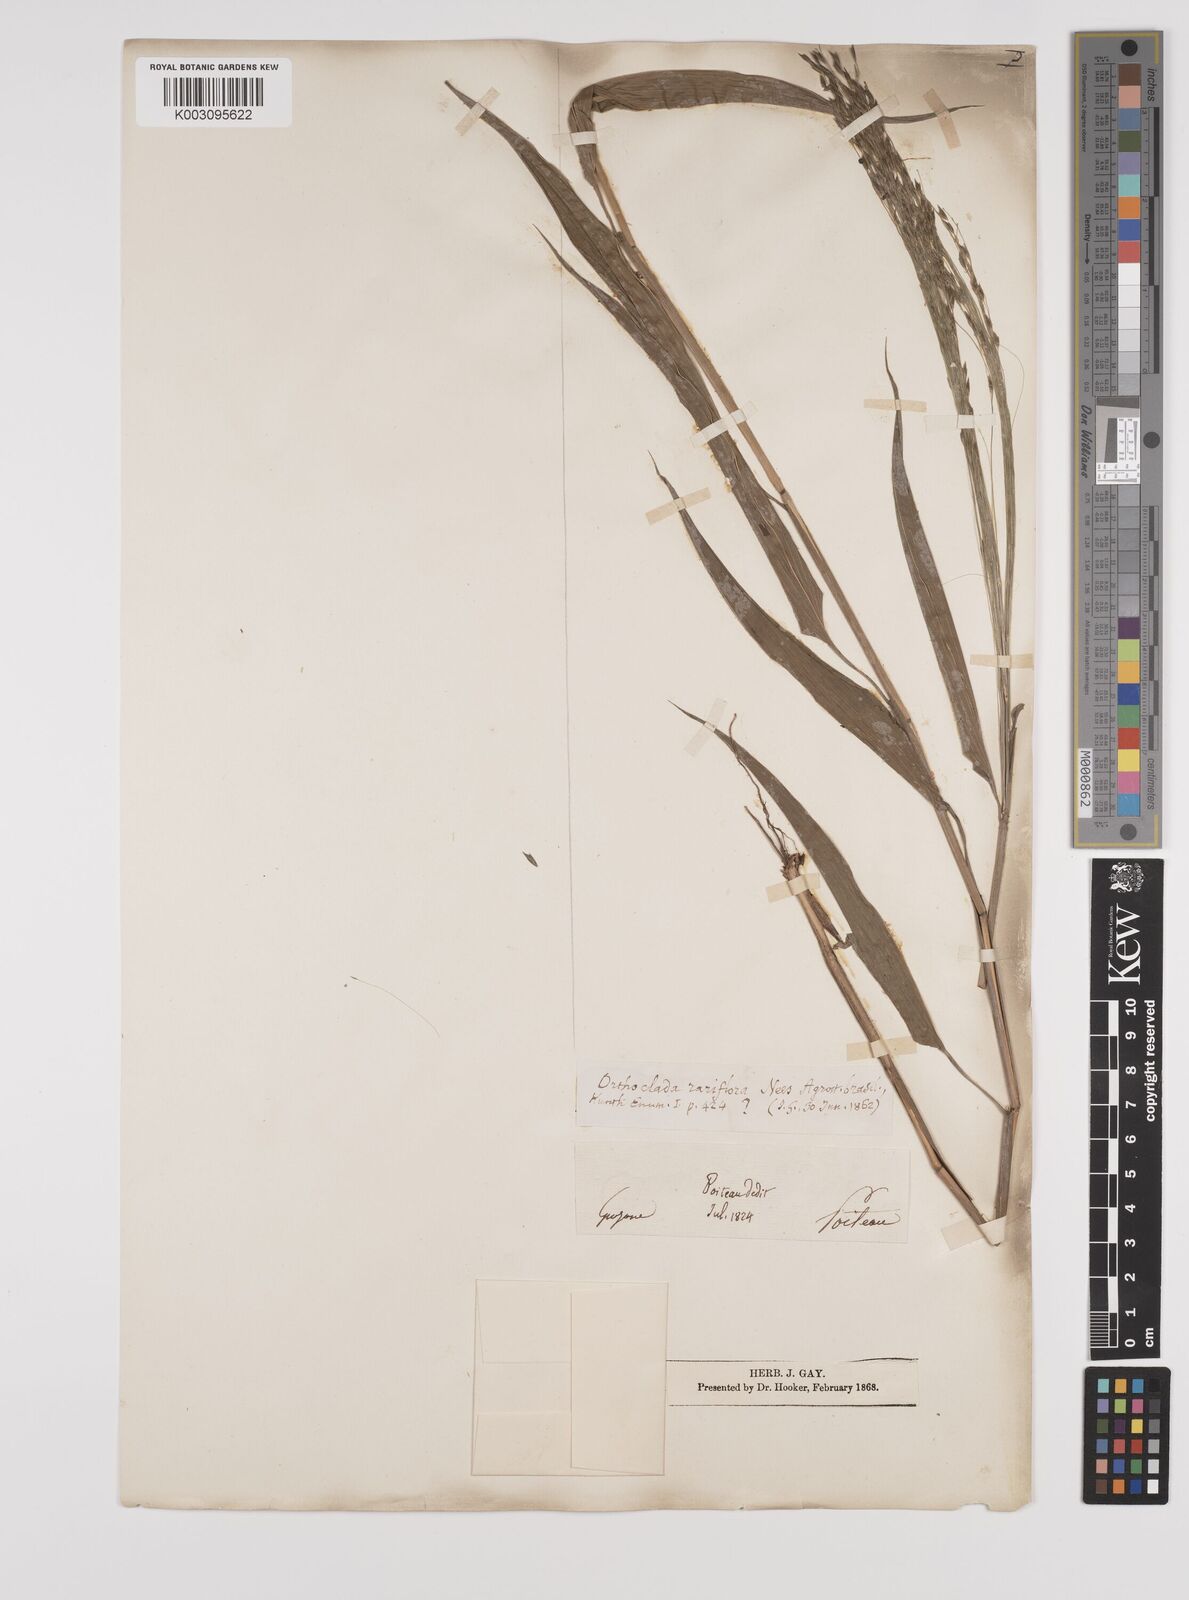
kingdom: Plantae
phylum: Tracheophyta
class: Liliopsida
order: Poales
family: Poaceae
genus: Orthoclada
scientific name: Orthoclada laxa
